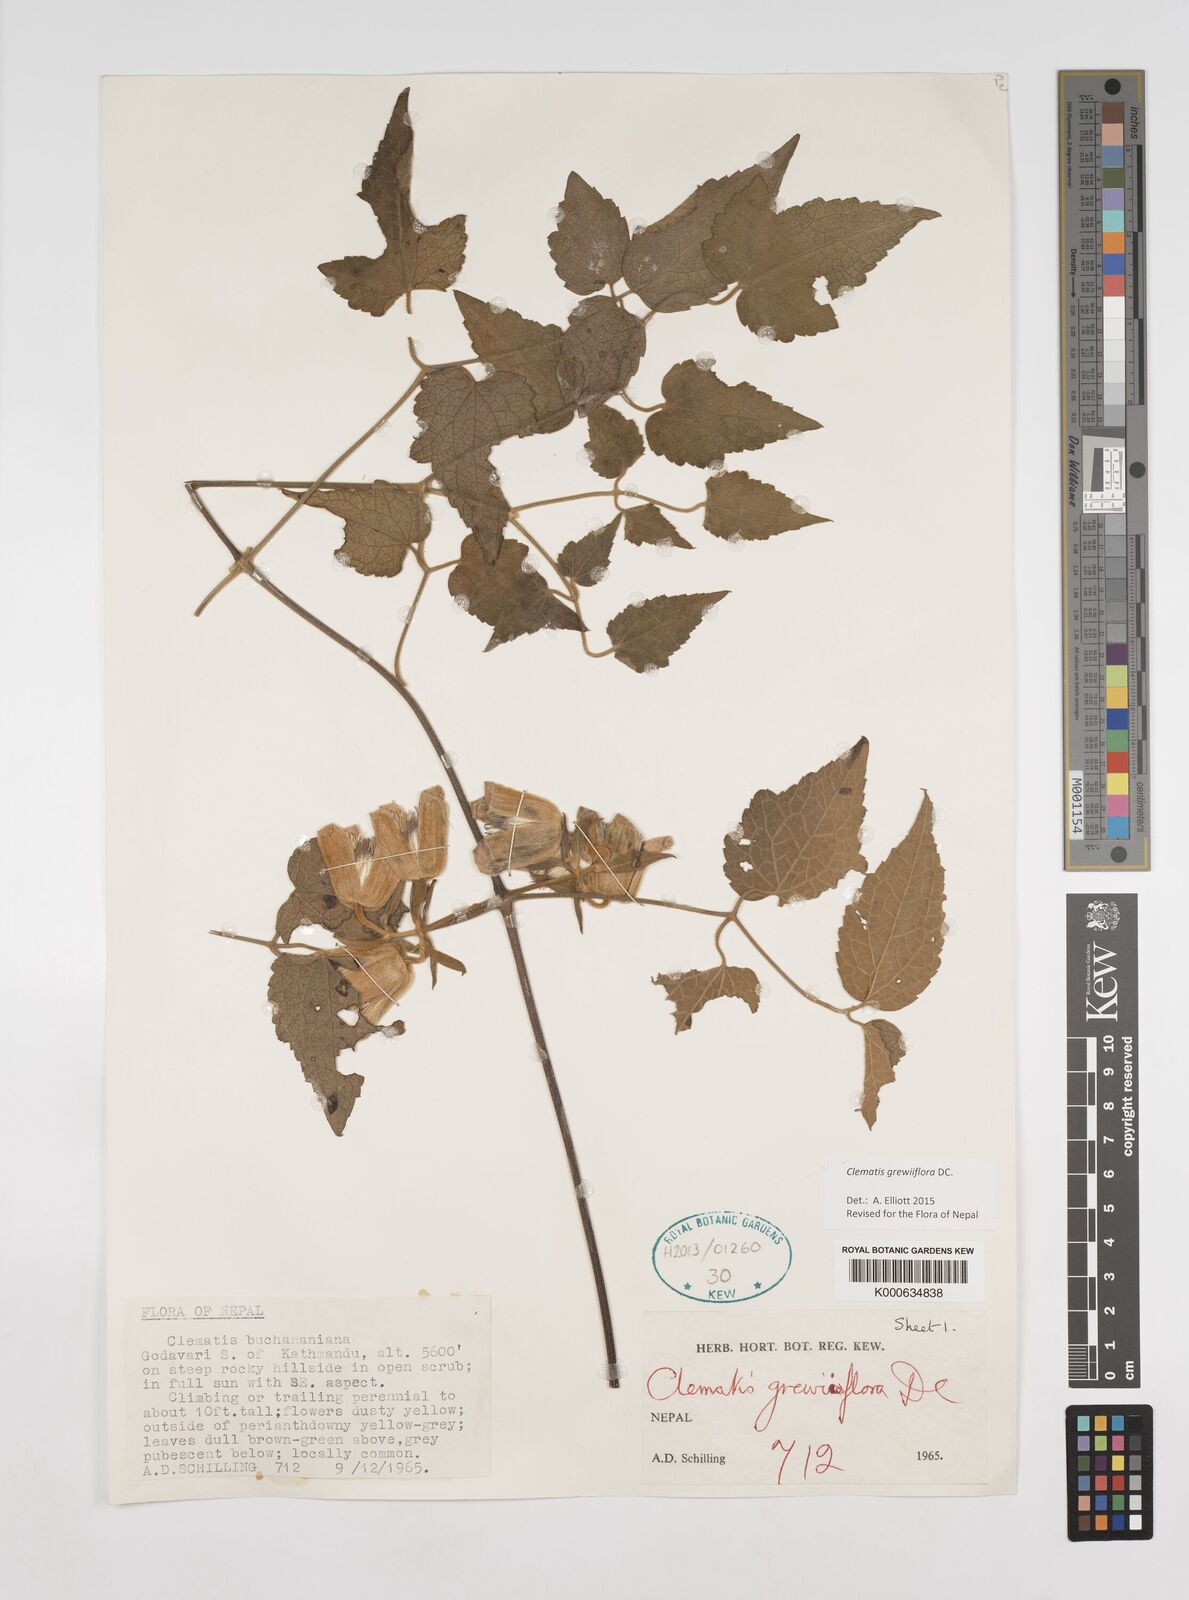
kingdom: Plantae
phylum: Tracheophyta
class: Magnoliopsida
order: Ranunculales
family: Ranunculaceae
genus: Clematis
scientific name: Clematis grewiiflora
